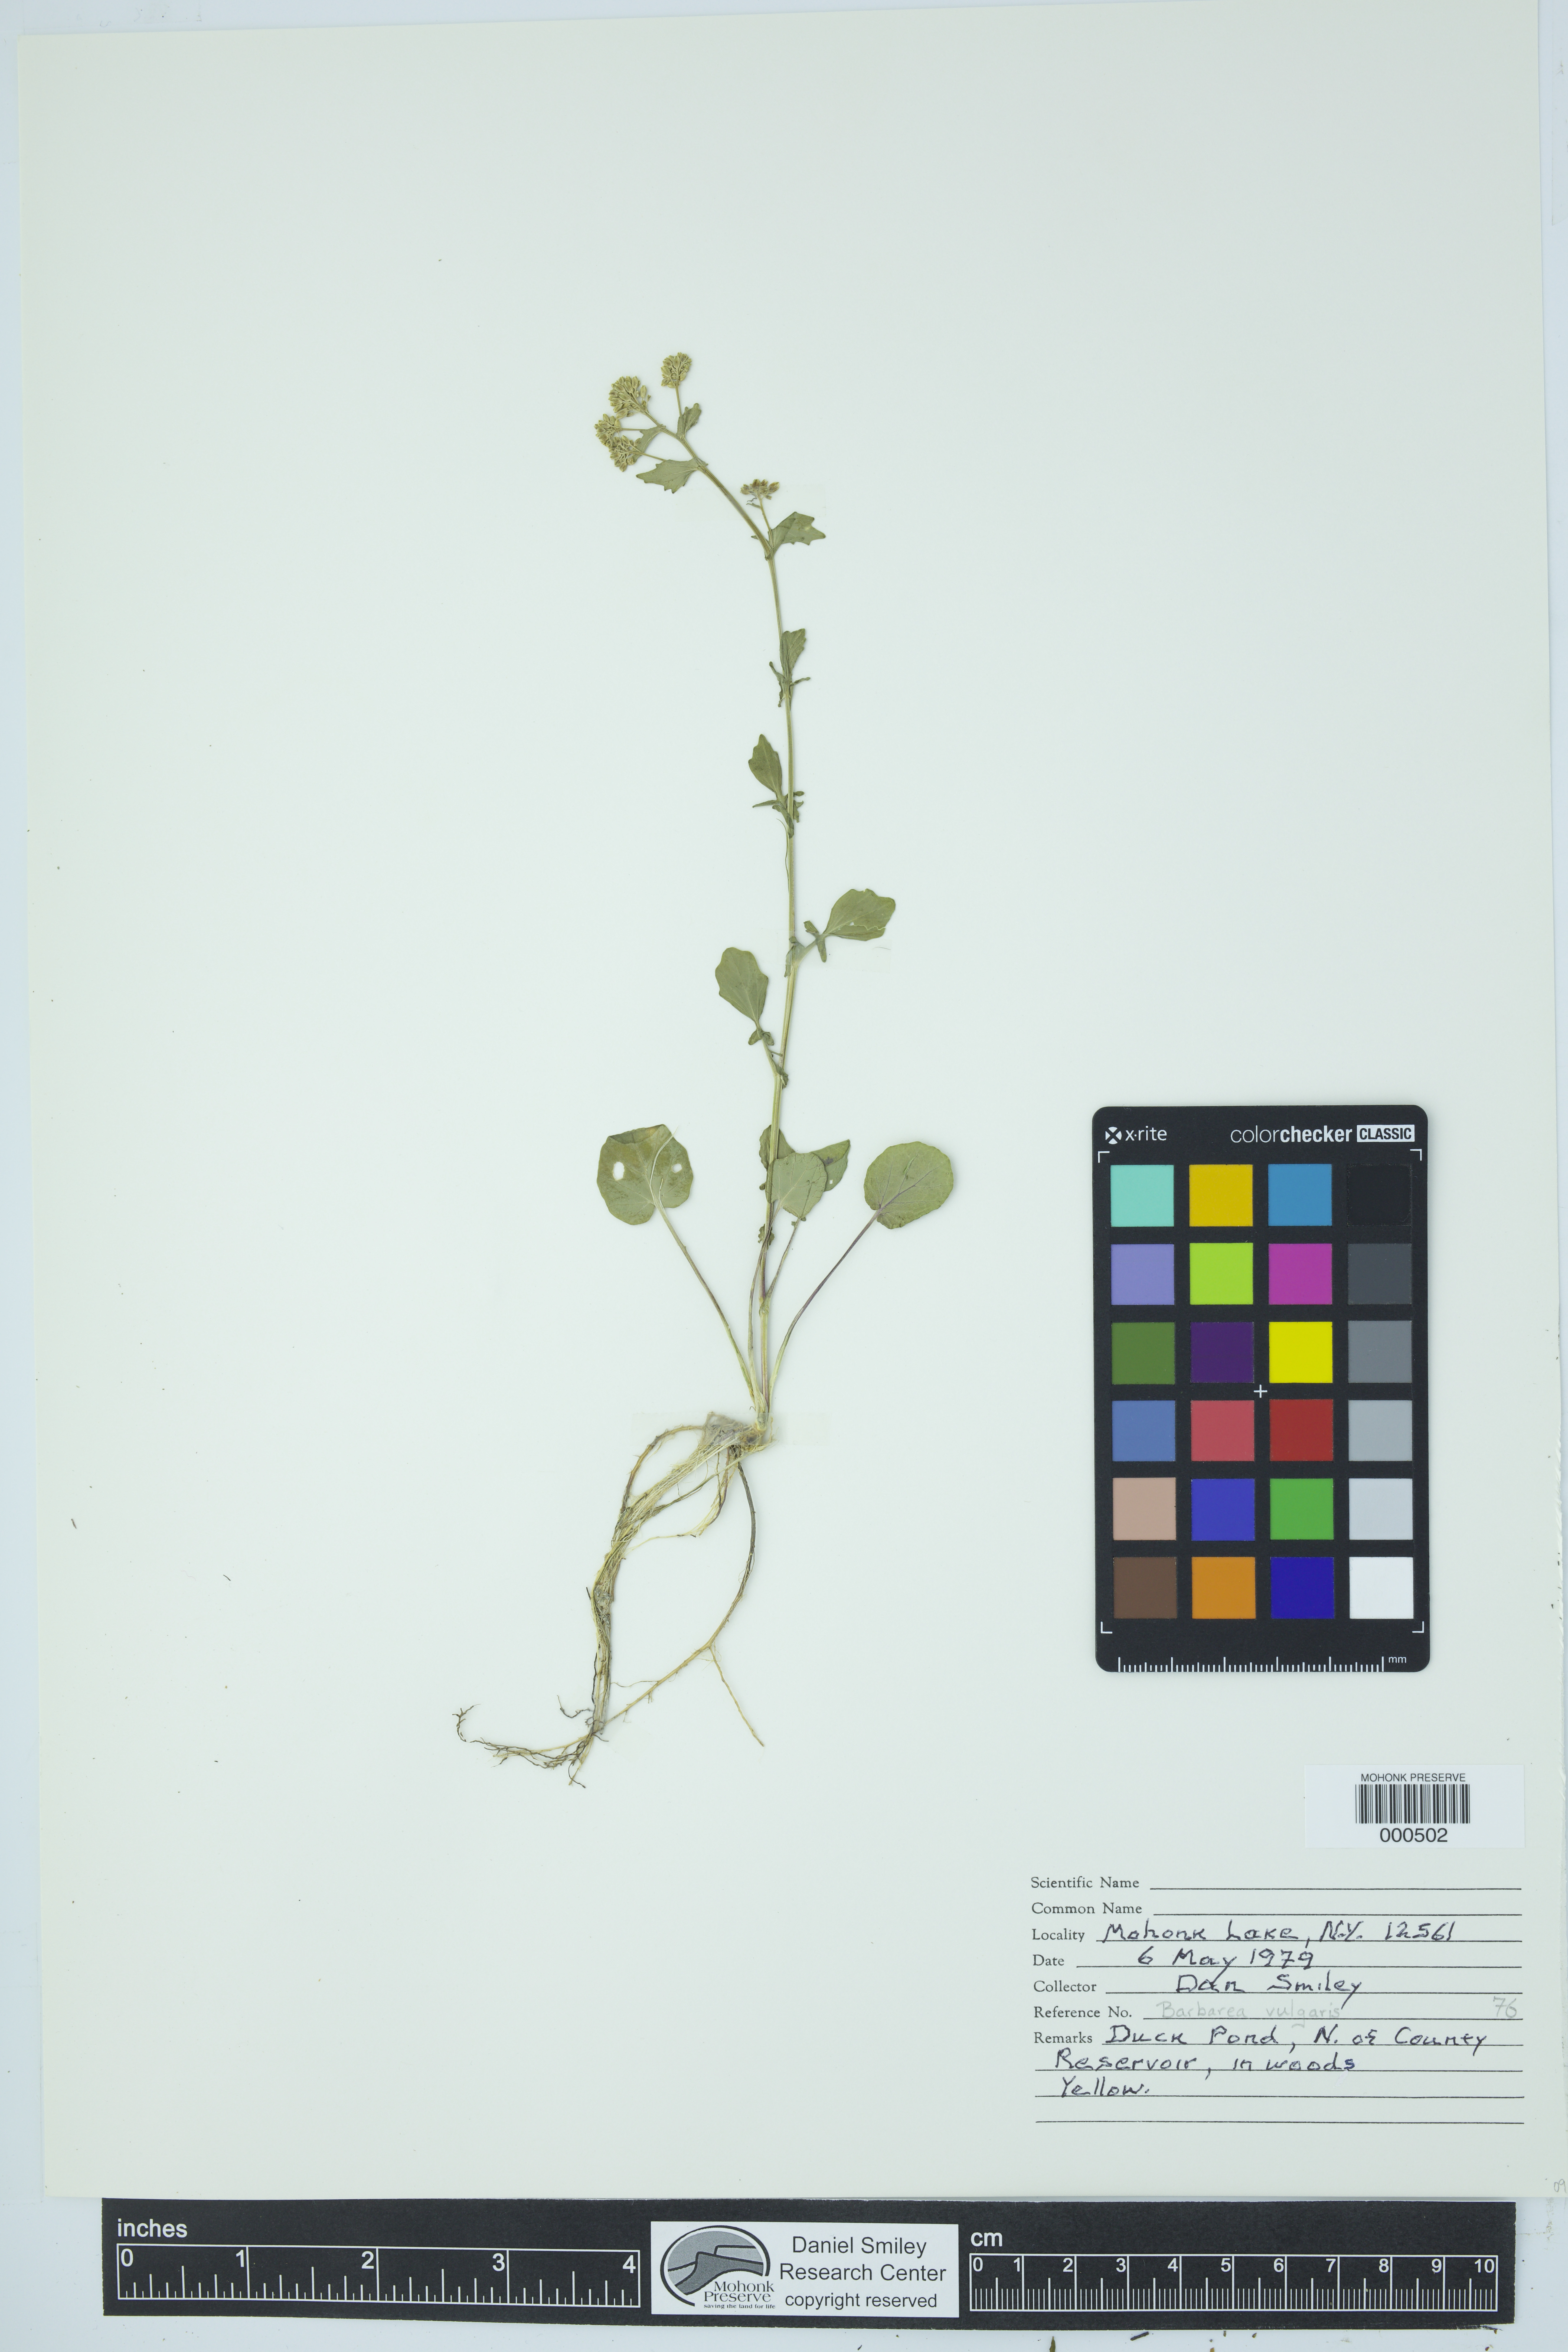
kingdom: Plantae
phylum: Tracheophyta
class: Magnoliopsida
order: Brassicales
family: Brassicaceae
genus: Barbarea
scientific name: Barbarea vulgaris
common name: Cressy-greens
